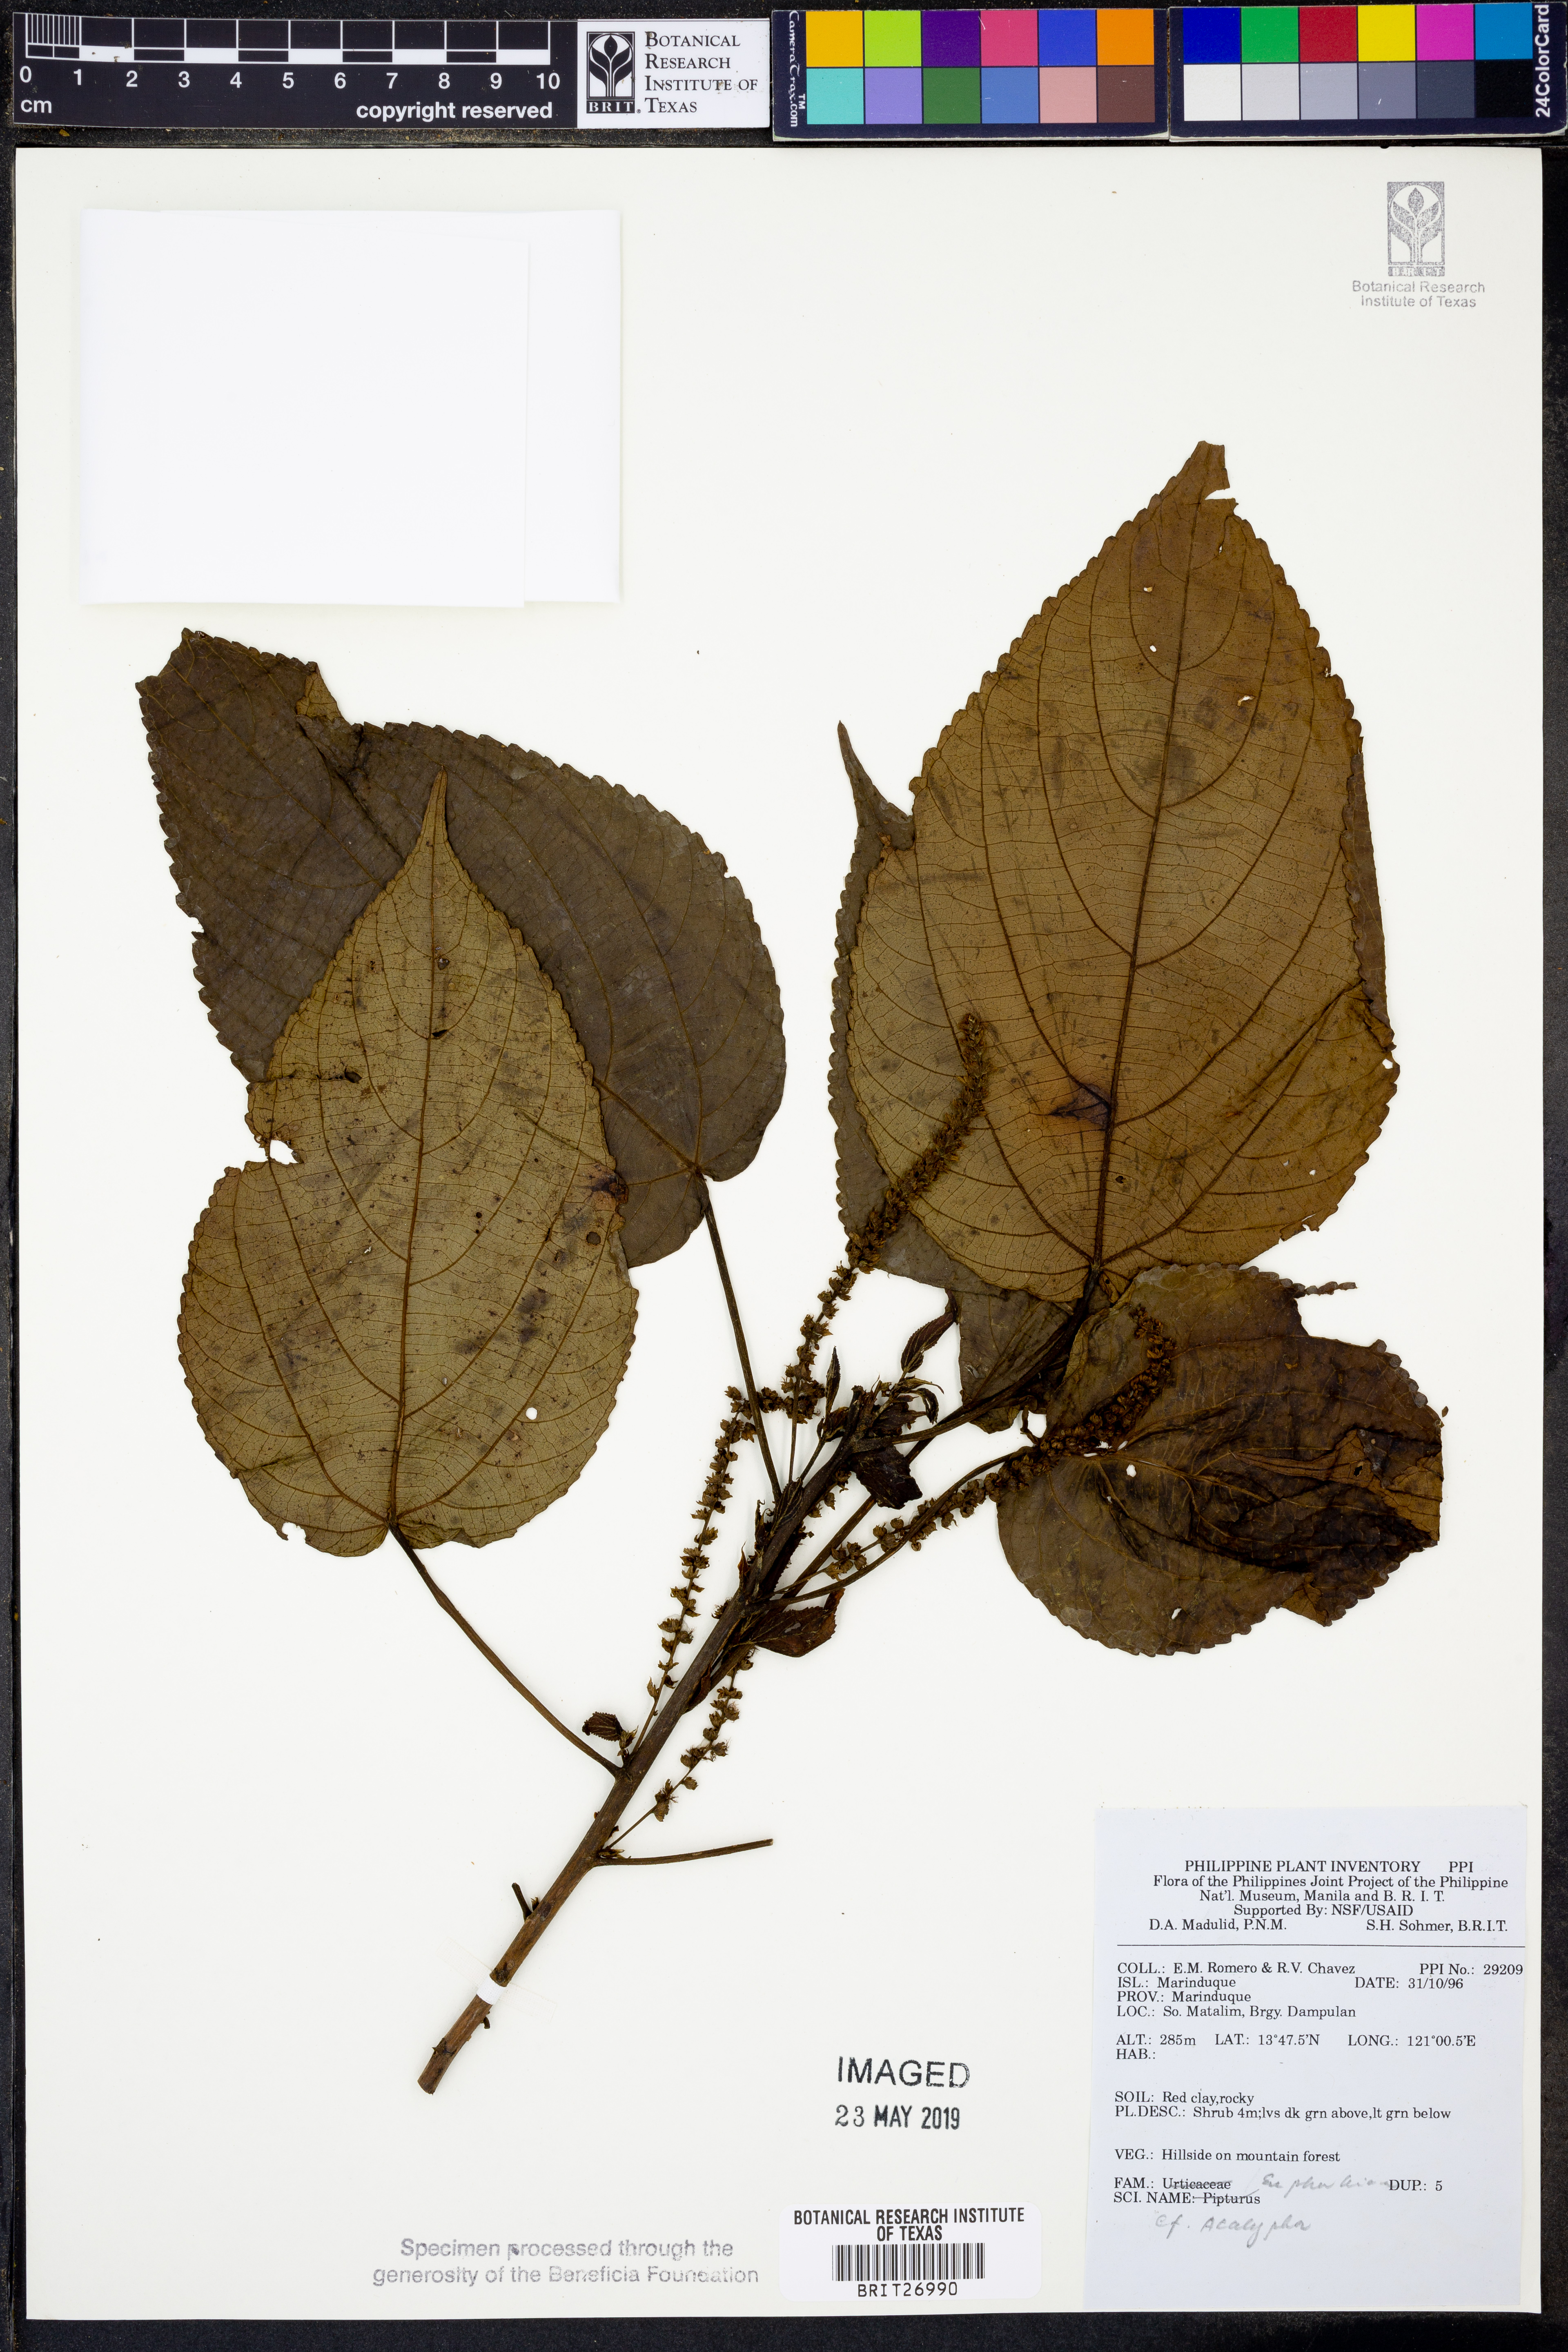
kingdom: Plantae
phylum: Tracheophyta
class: Magnoliopsida
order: Malpighiales
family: Euphorbiaceae
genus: Acalypha
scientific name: Acalypha
